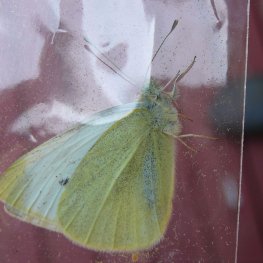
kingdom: Animalia
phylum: Arthropoda
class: Insecta
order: Lepidoptera
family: Pieridae
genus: Pieris
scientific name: Pieris rapae
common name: Cabbage White
